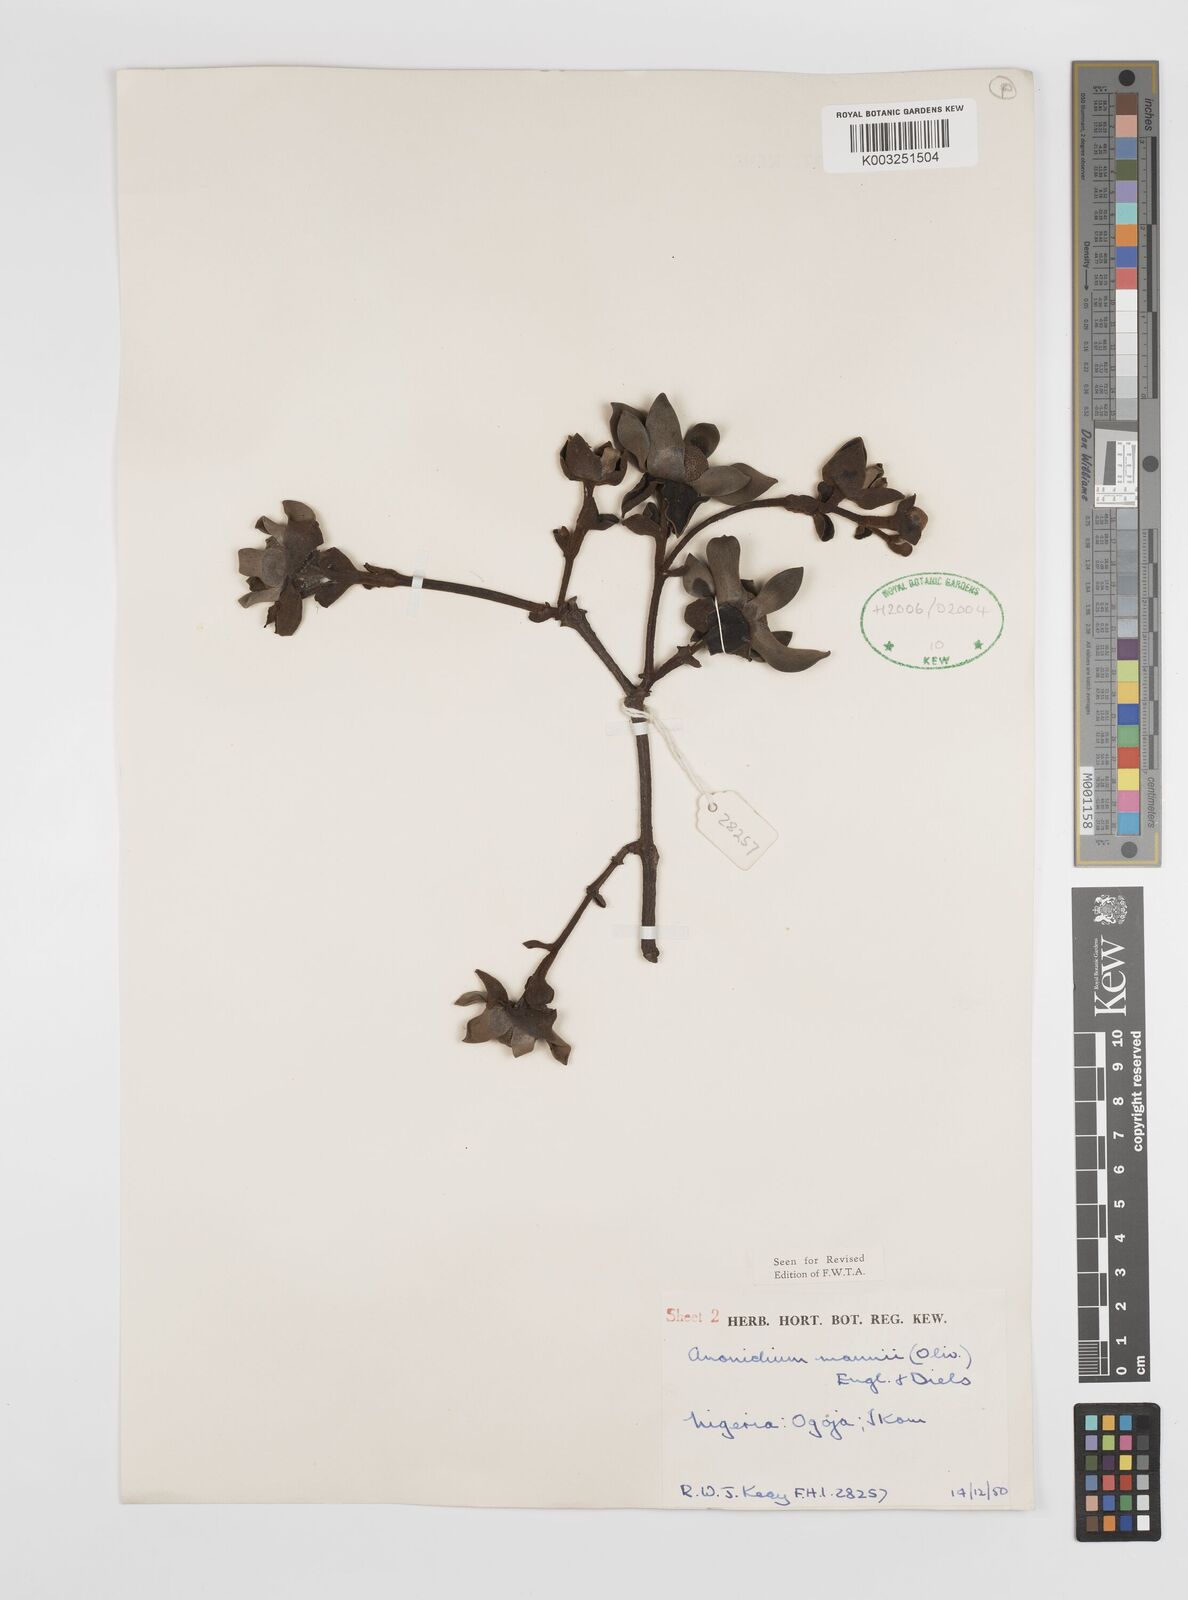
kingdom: Plantae
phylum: Tracheophyta
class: Magnoliopsida
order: Magnoliales
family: Annonaceae
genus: Anonidium
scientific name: Anonidium mannii
